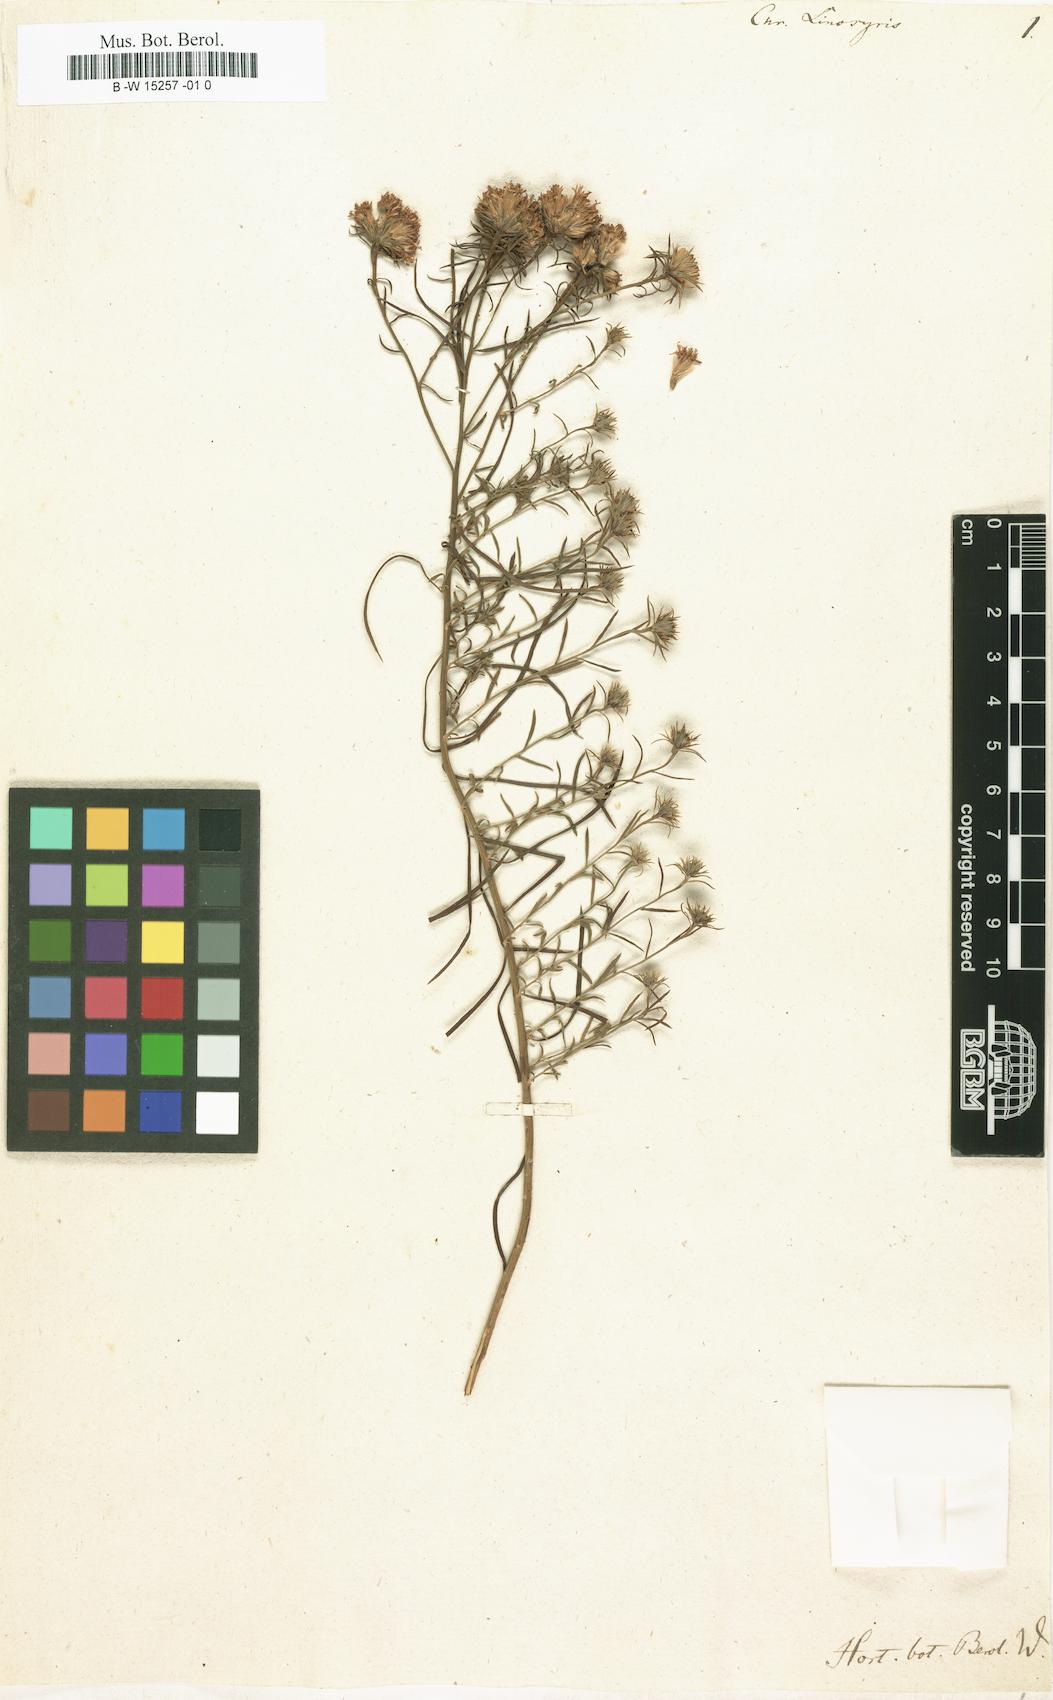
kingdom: Plantae
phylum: Tracheophyta
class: Magnoliopsida
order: Asterales
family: Asteraceae
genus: Galatella
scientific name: Galatella linosyris
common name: Goldilocks aster
